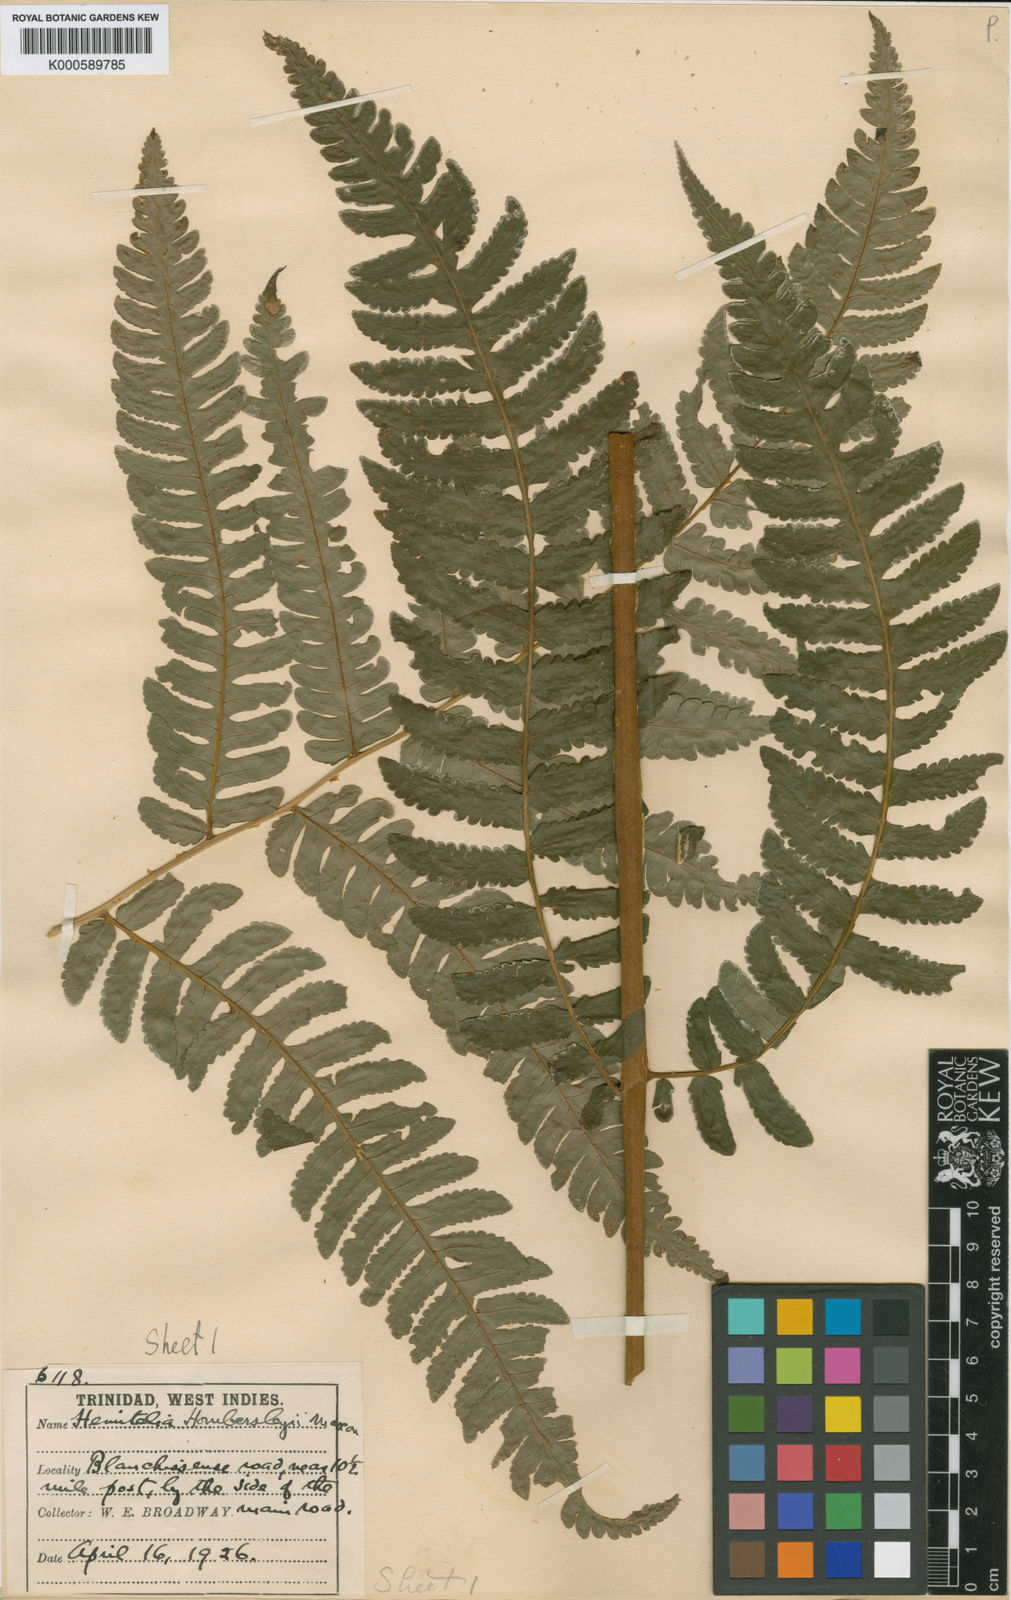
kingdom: Plantae
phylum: Tracheophyta
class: Polypodiopsida
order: Cyatheales
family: Cyatheaceae
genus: Cyathea
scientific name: Cyathea hombersleyi
